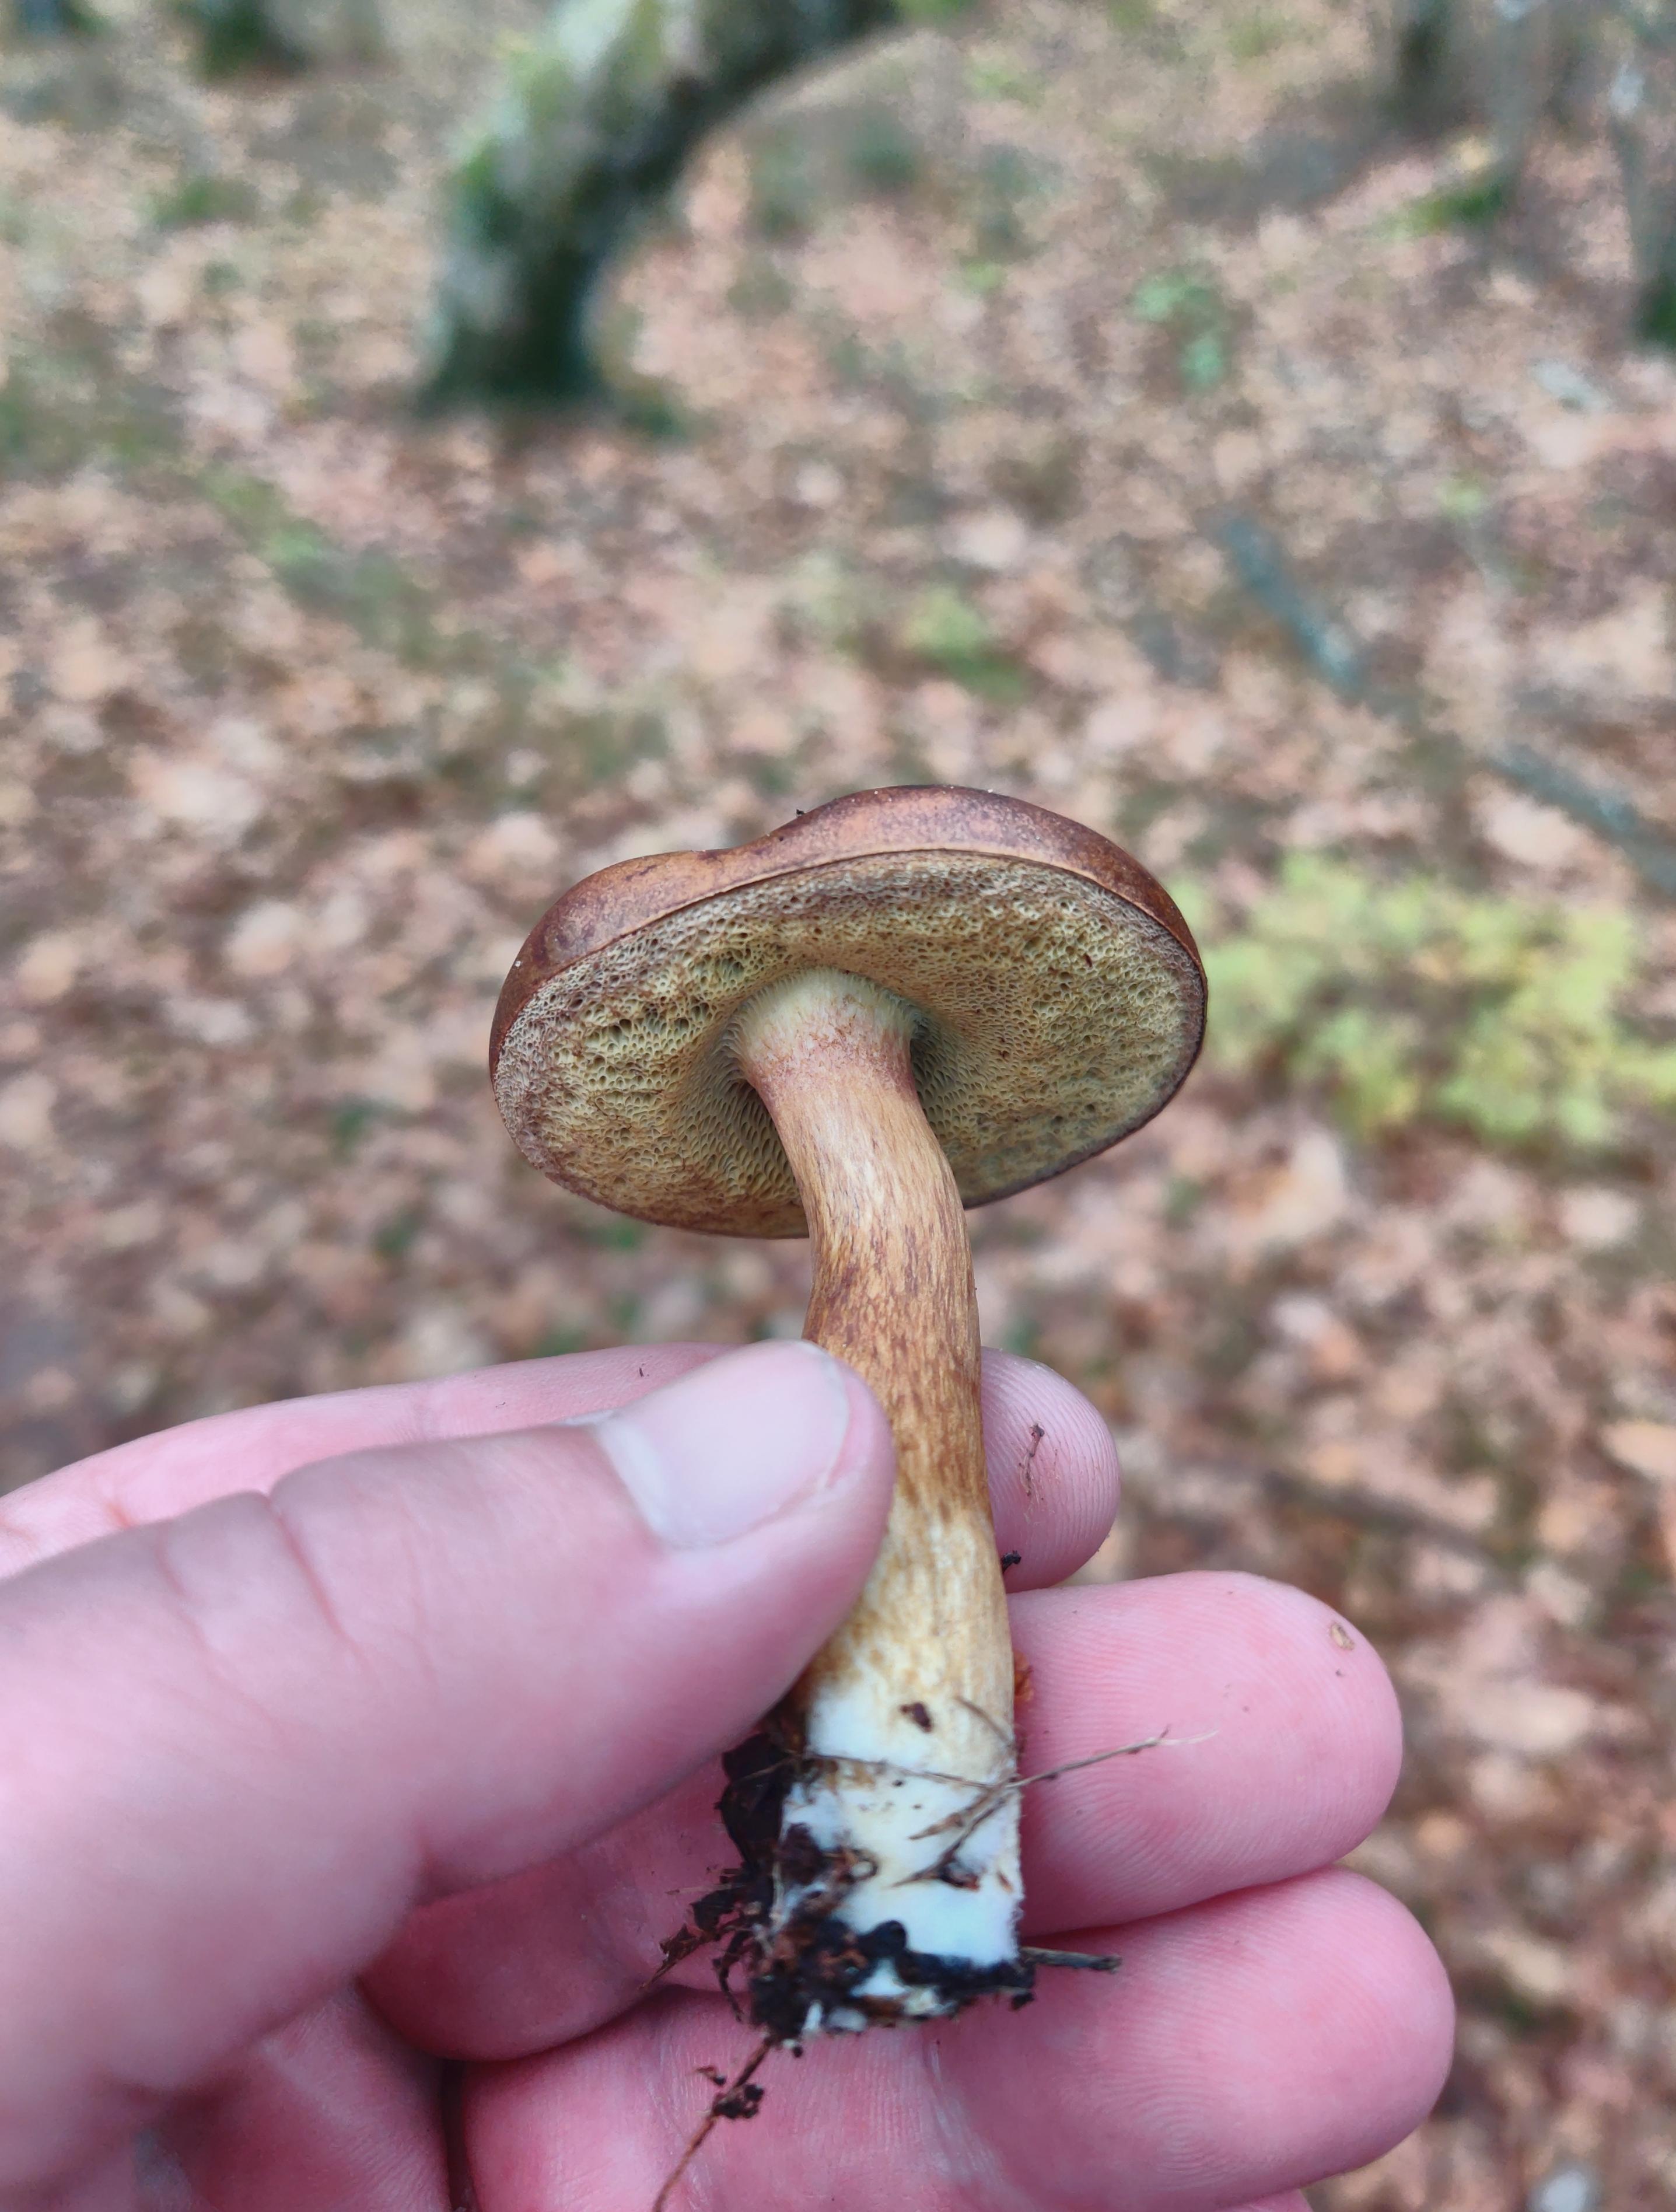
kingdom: Fungi
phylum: Basidiomycota
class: Agaricomycetes
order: Boletales
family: Boletaceae
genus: Imleria
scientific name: Imleria badia
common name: brunstokket rørhat
